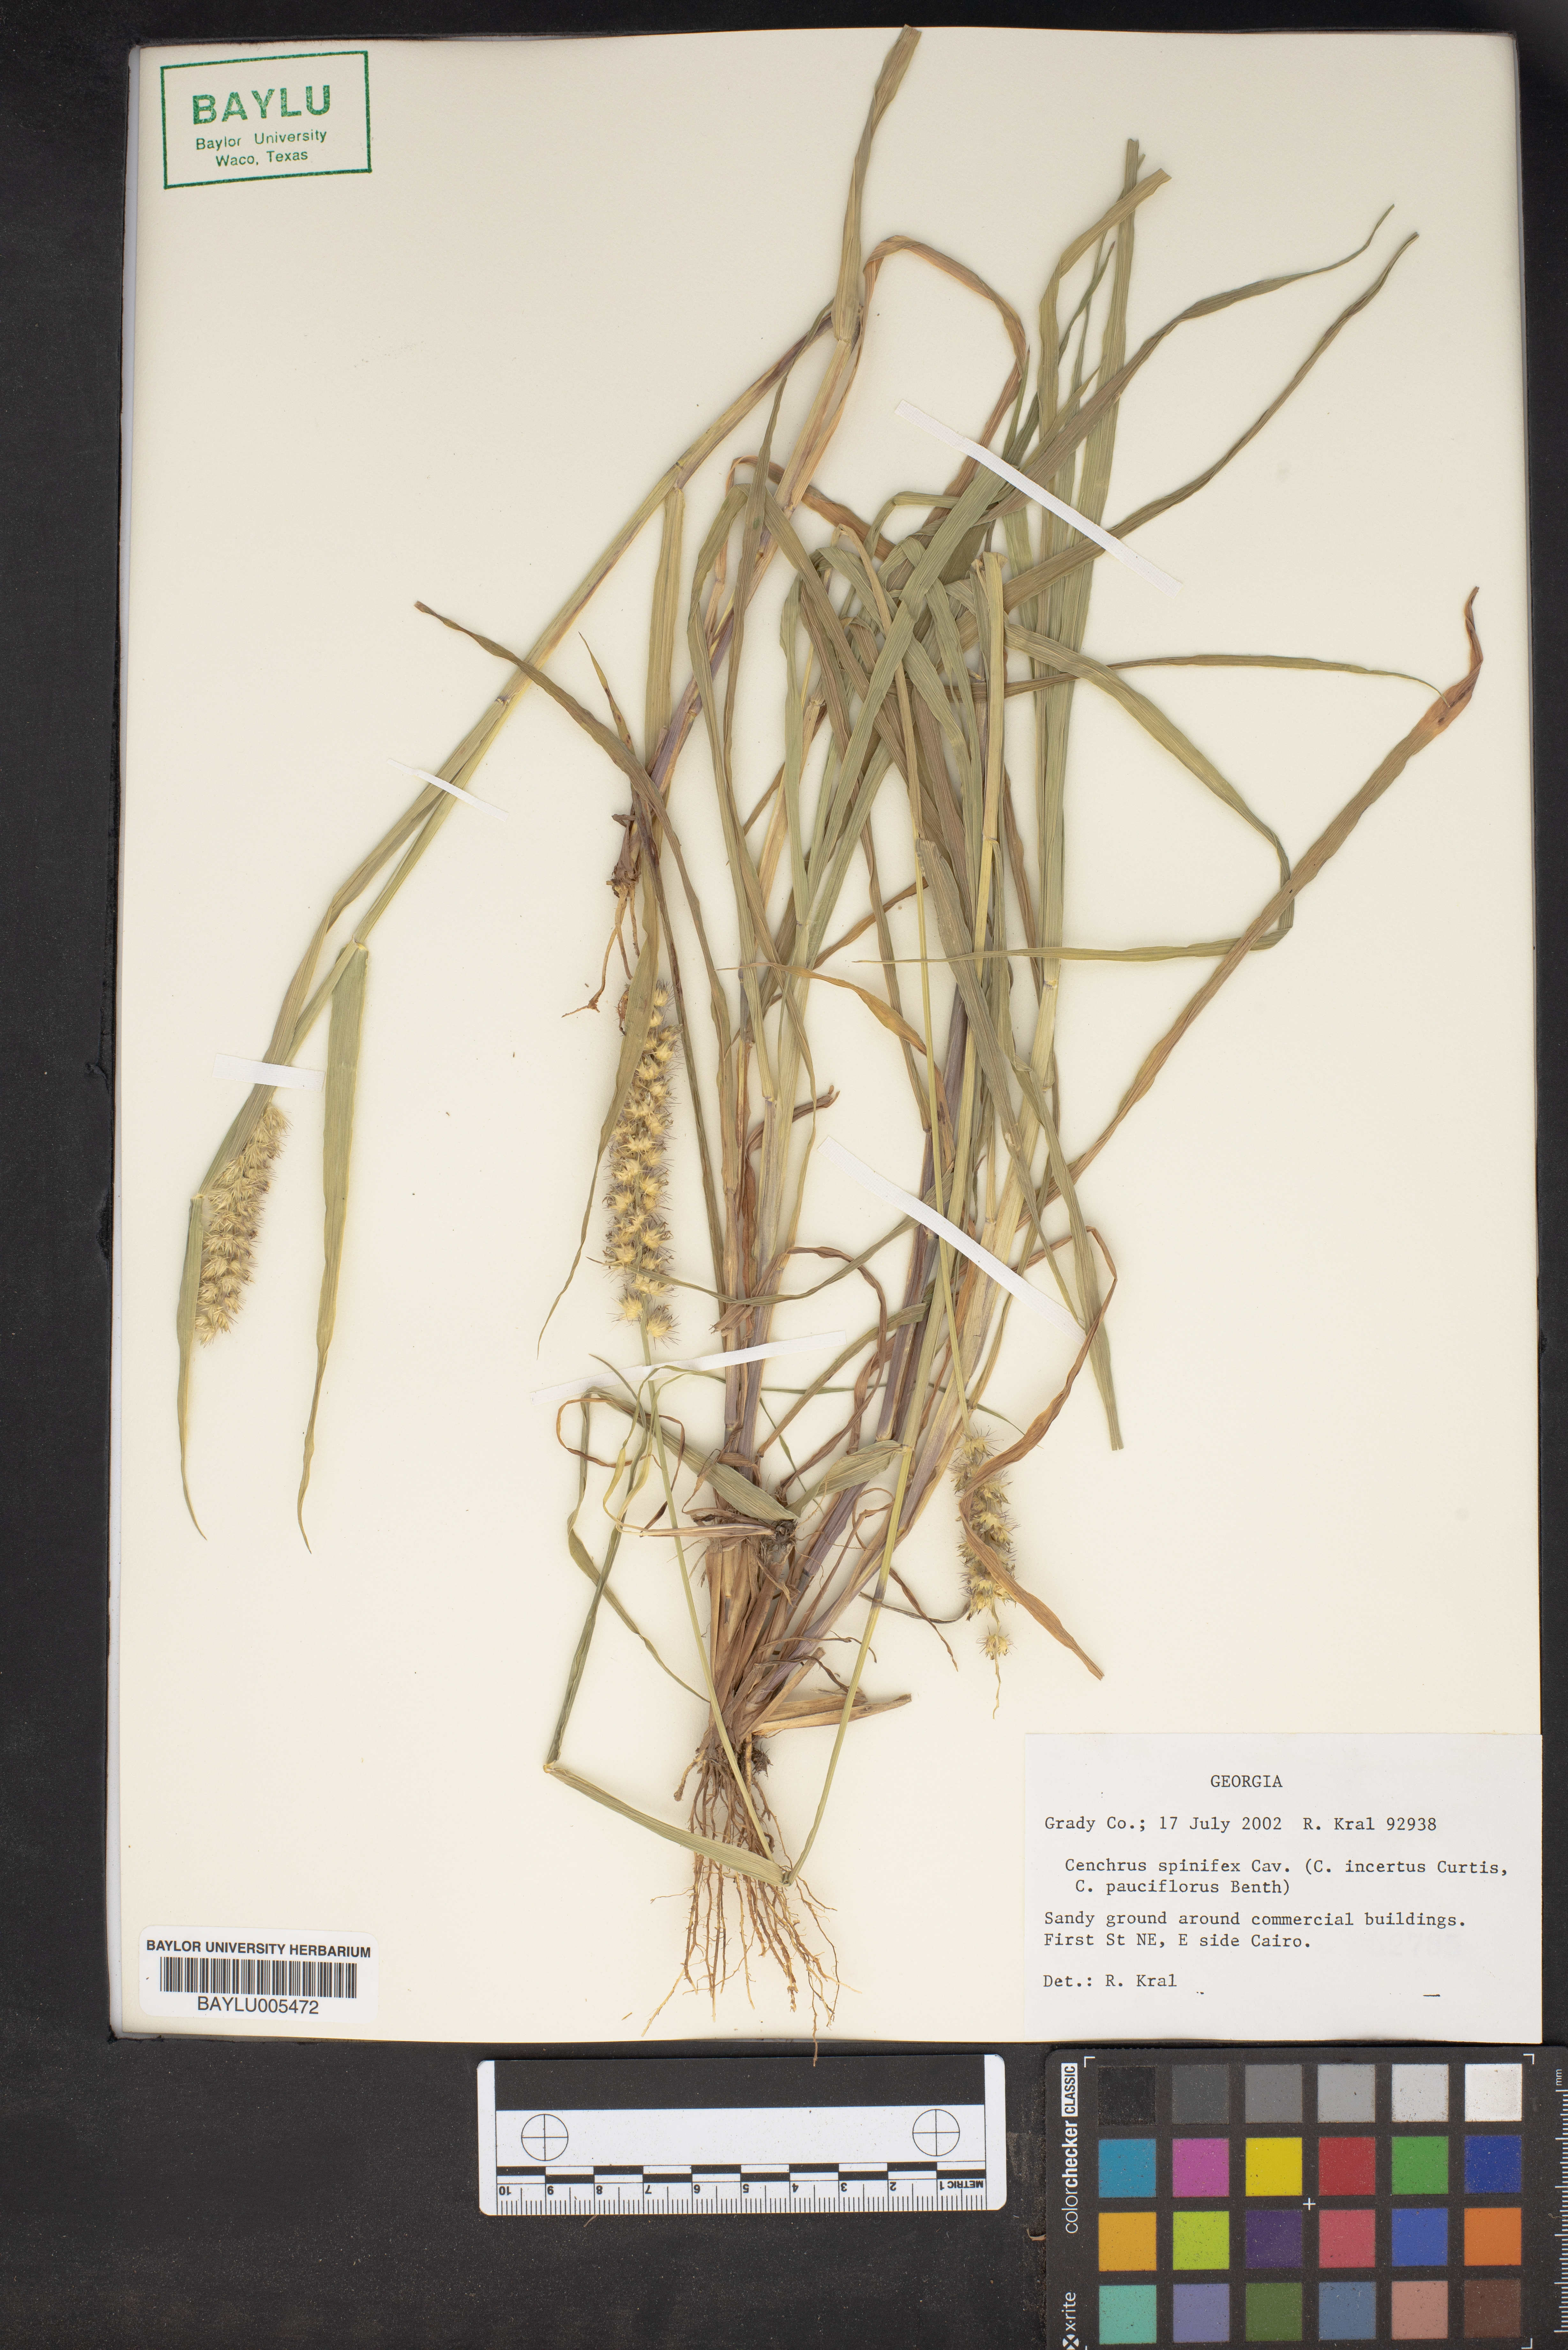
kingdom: Plantae
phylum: Tracheophyta
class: Liliopsida
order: Poales
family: Poaceae
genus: Cenchrus
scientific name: Cenchrus spinifex
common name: Coast sandbur
